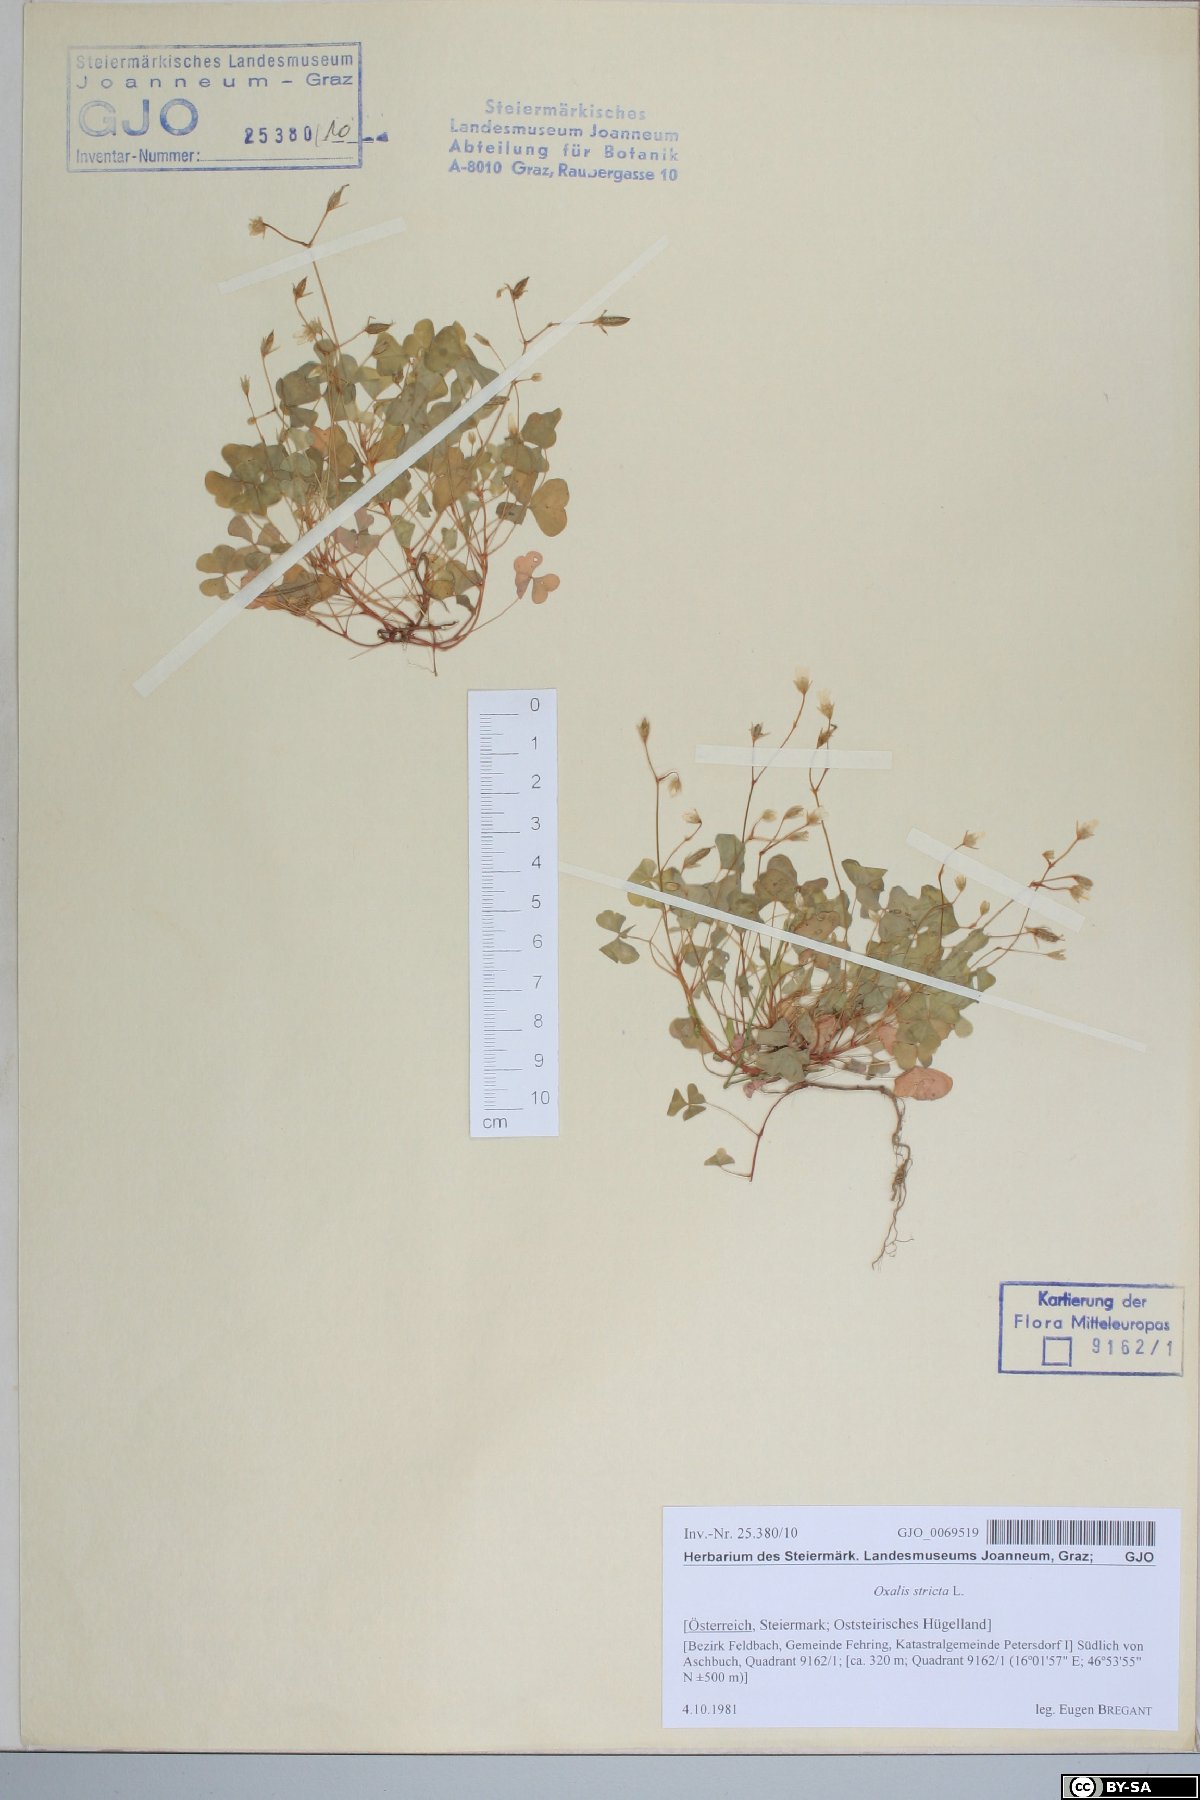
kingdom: Plantae
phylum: Tracheophyta
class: Magnoliopsida
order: Oxalidales
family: Oxalidaceae
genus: Oxalis
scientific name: Oxalis stricta
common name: Upright yellow-sorrel
